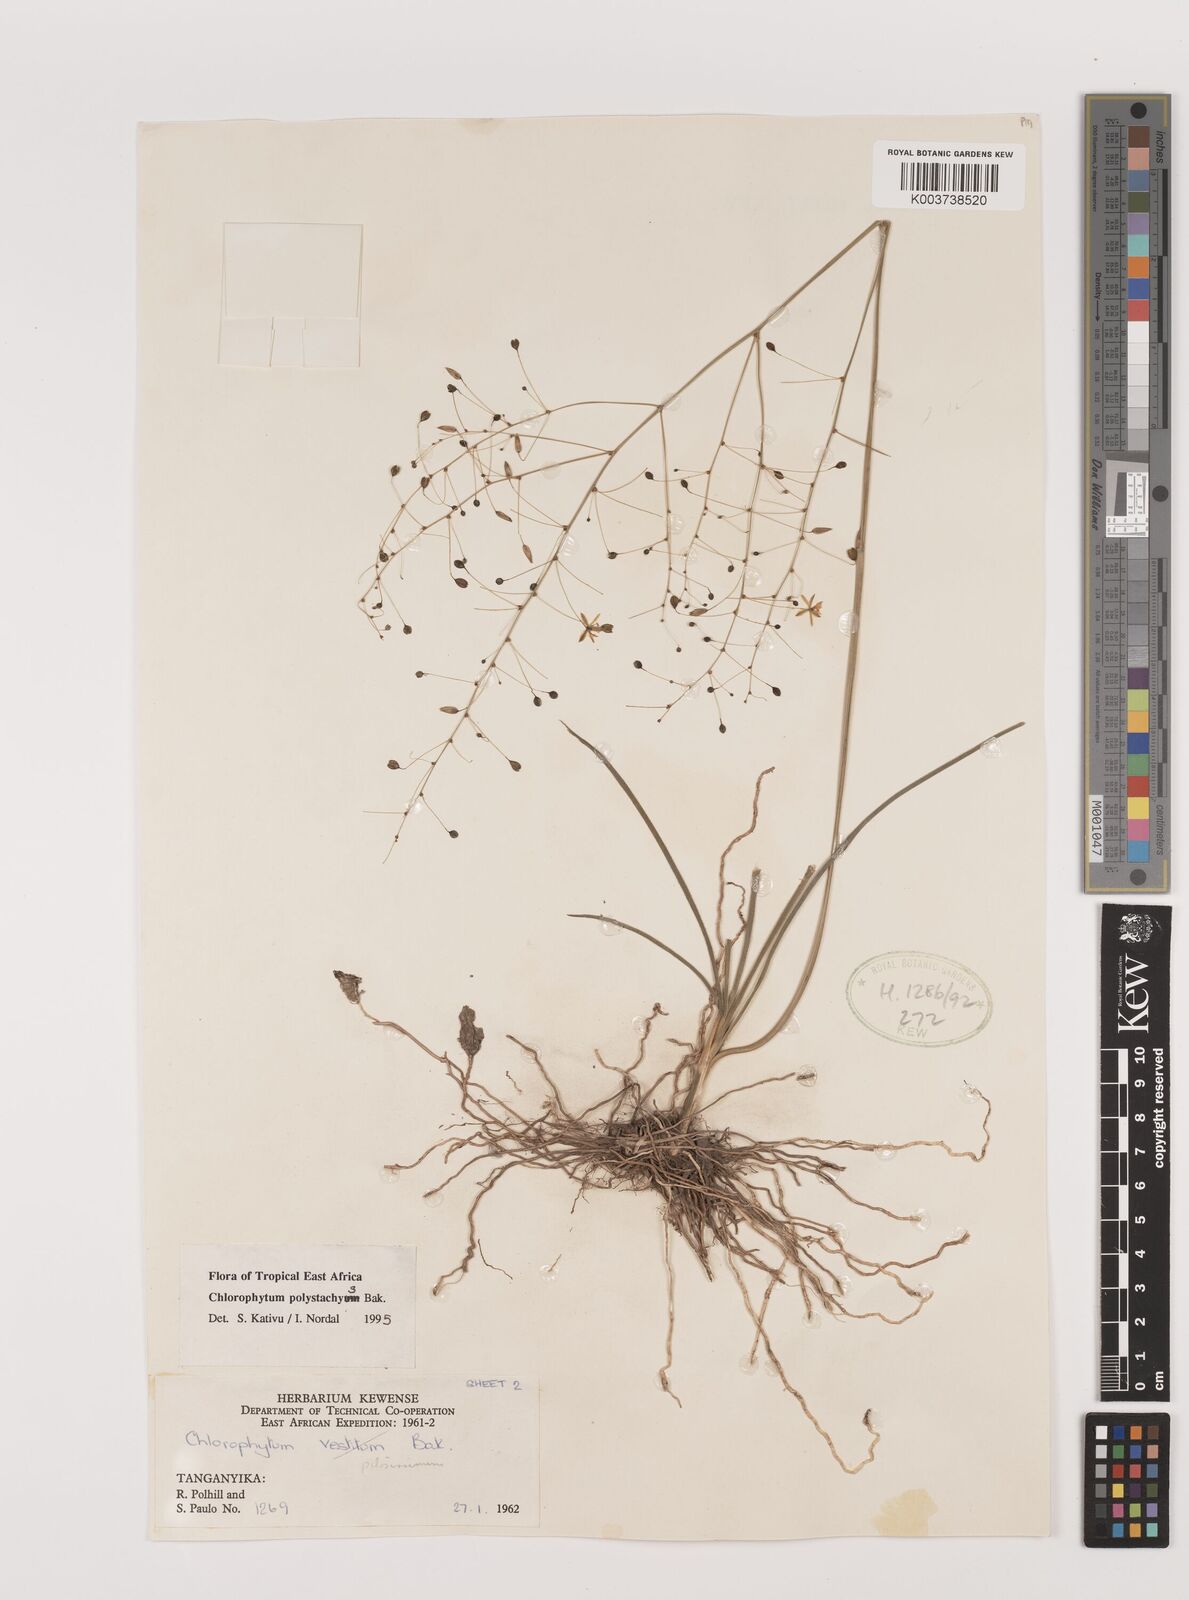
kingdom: Plantae
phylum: Tracheophyta
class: Liliopsida
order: Asparagales
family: Asparagaceae
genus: Chlorophytum
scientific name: Chlorophytum polystachys
